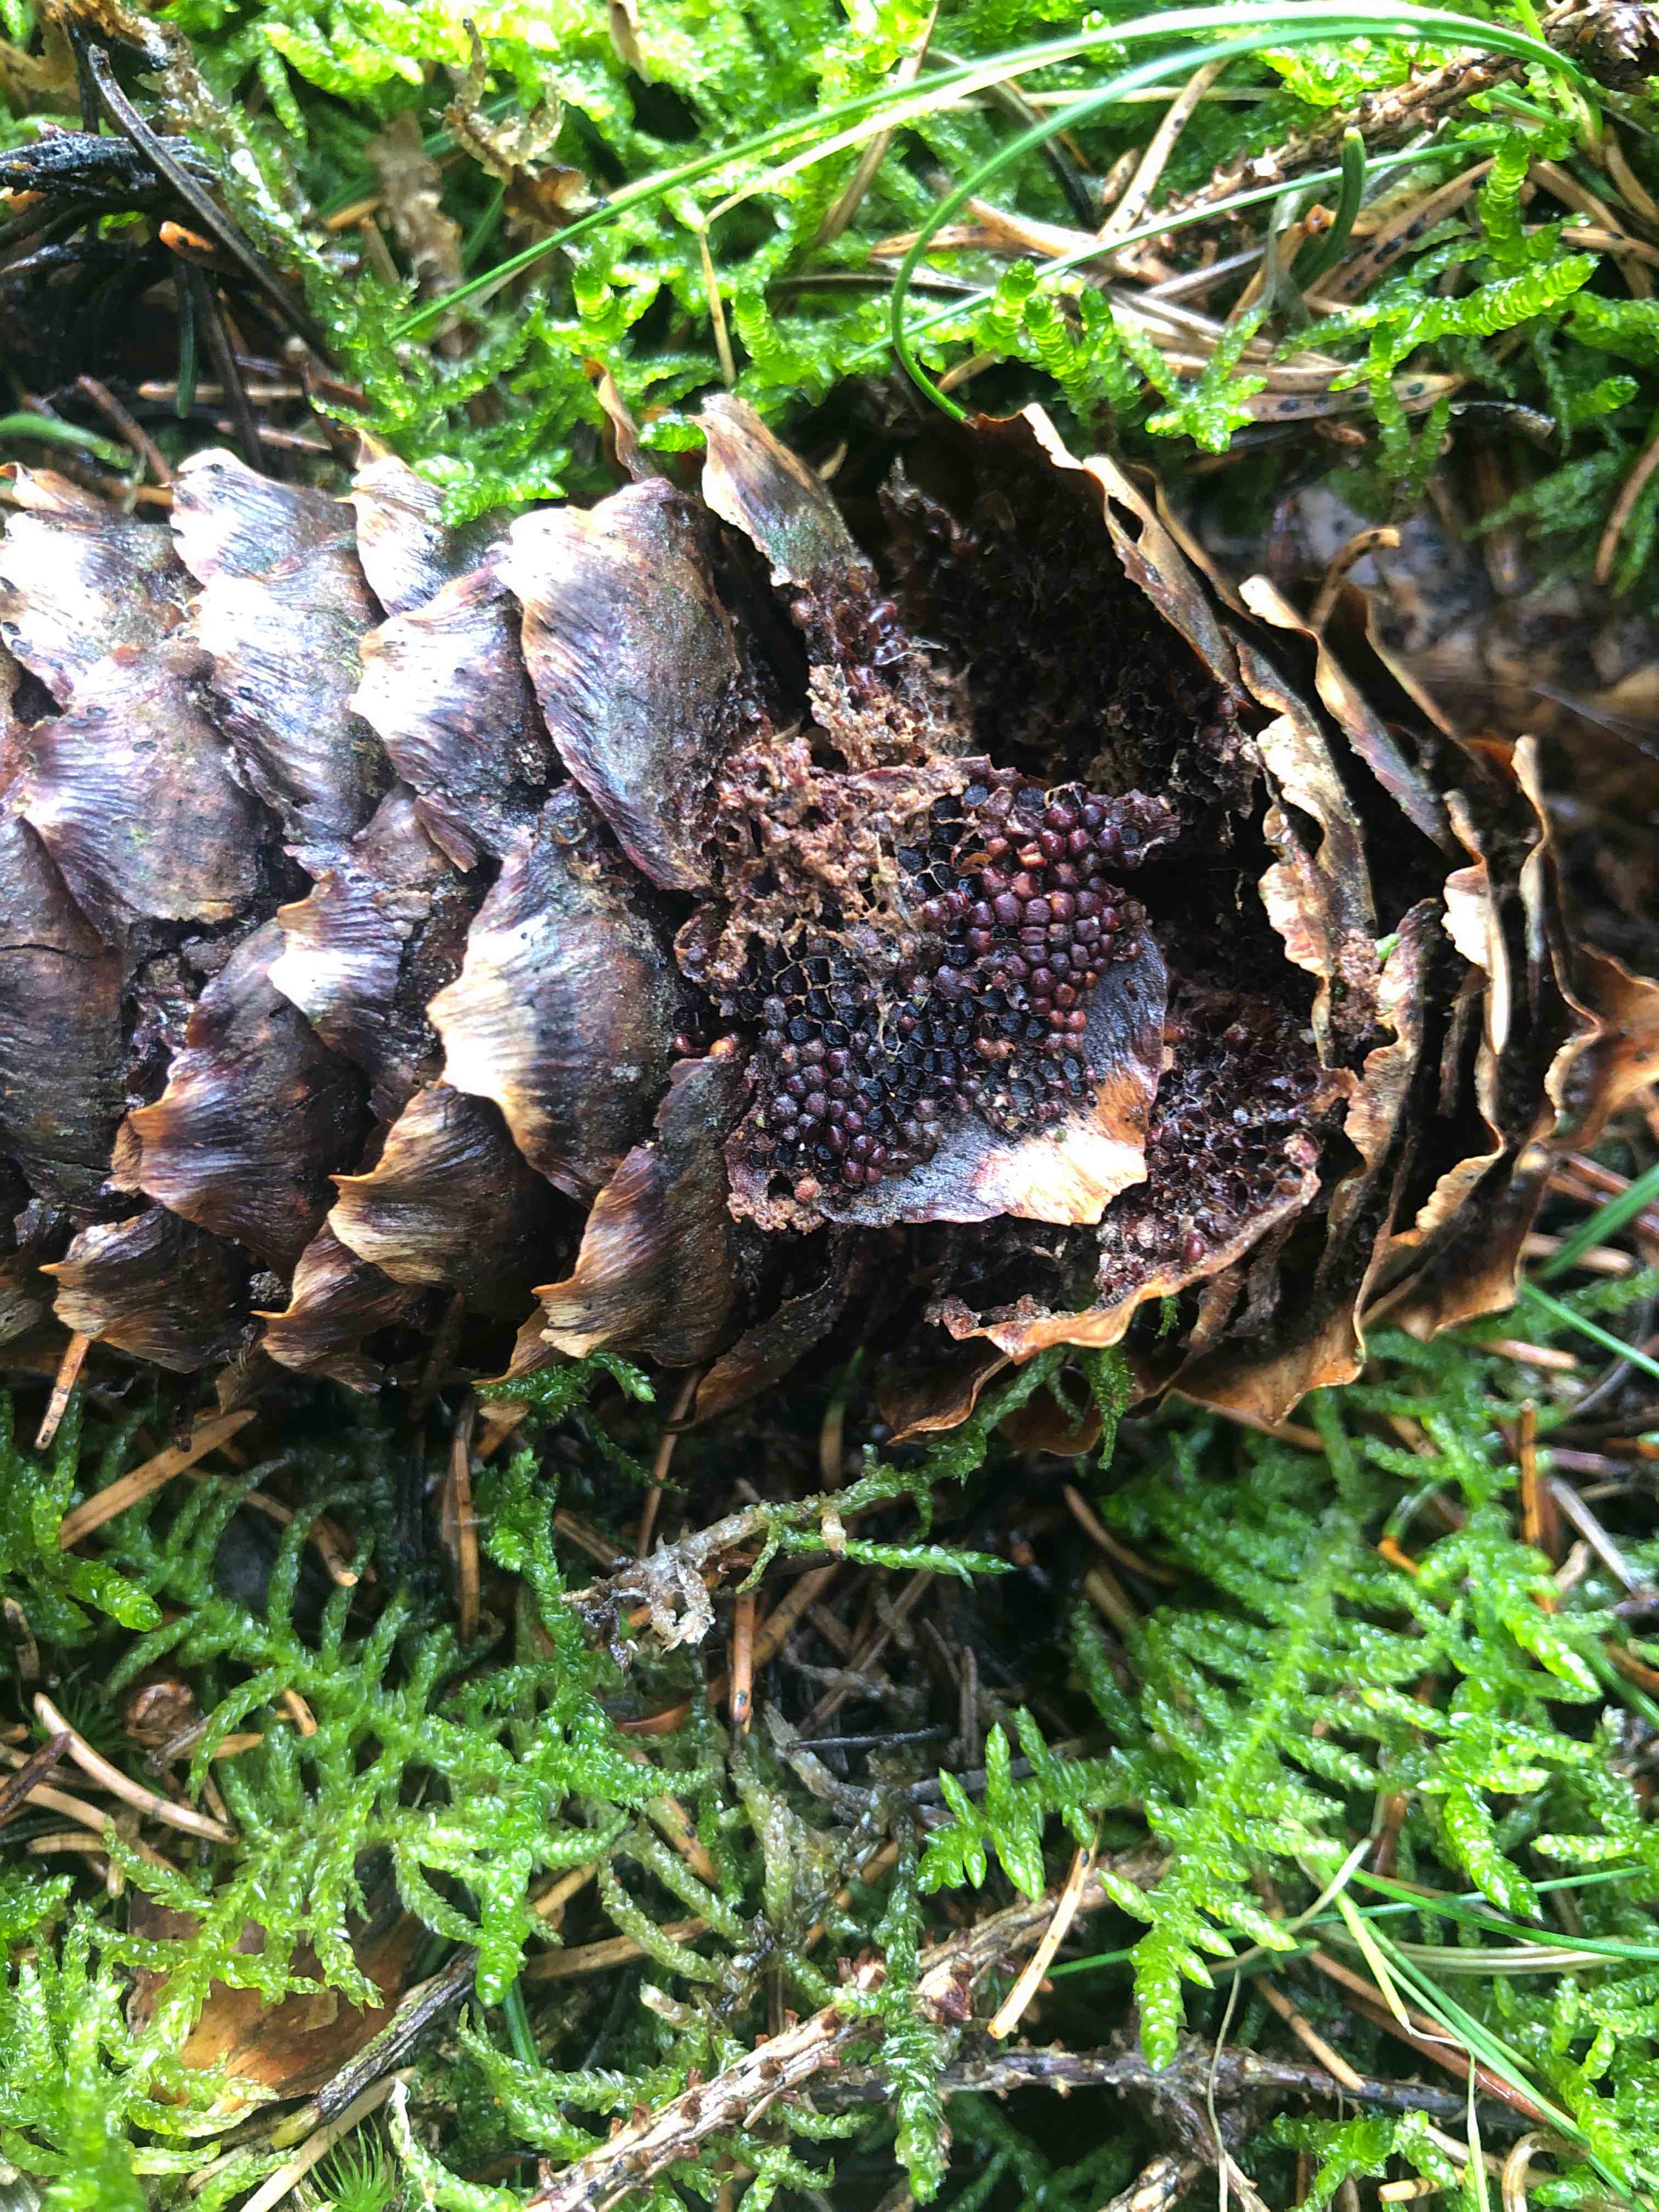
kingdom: Fungi
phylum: Basidiomycota
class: Pucciniomycetes
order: Pucciniales
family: Pucciniastraceae
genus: Thekopsora
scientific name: Thekopsora areolata
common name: grankogle-nålerust
